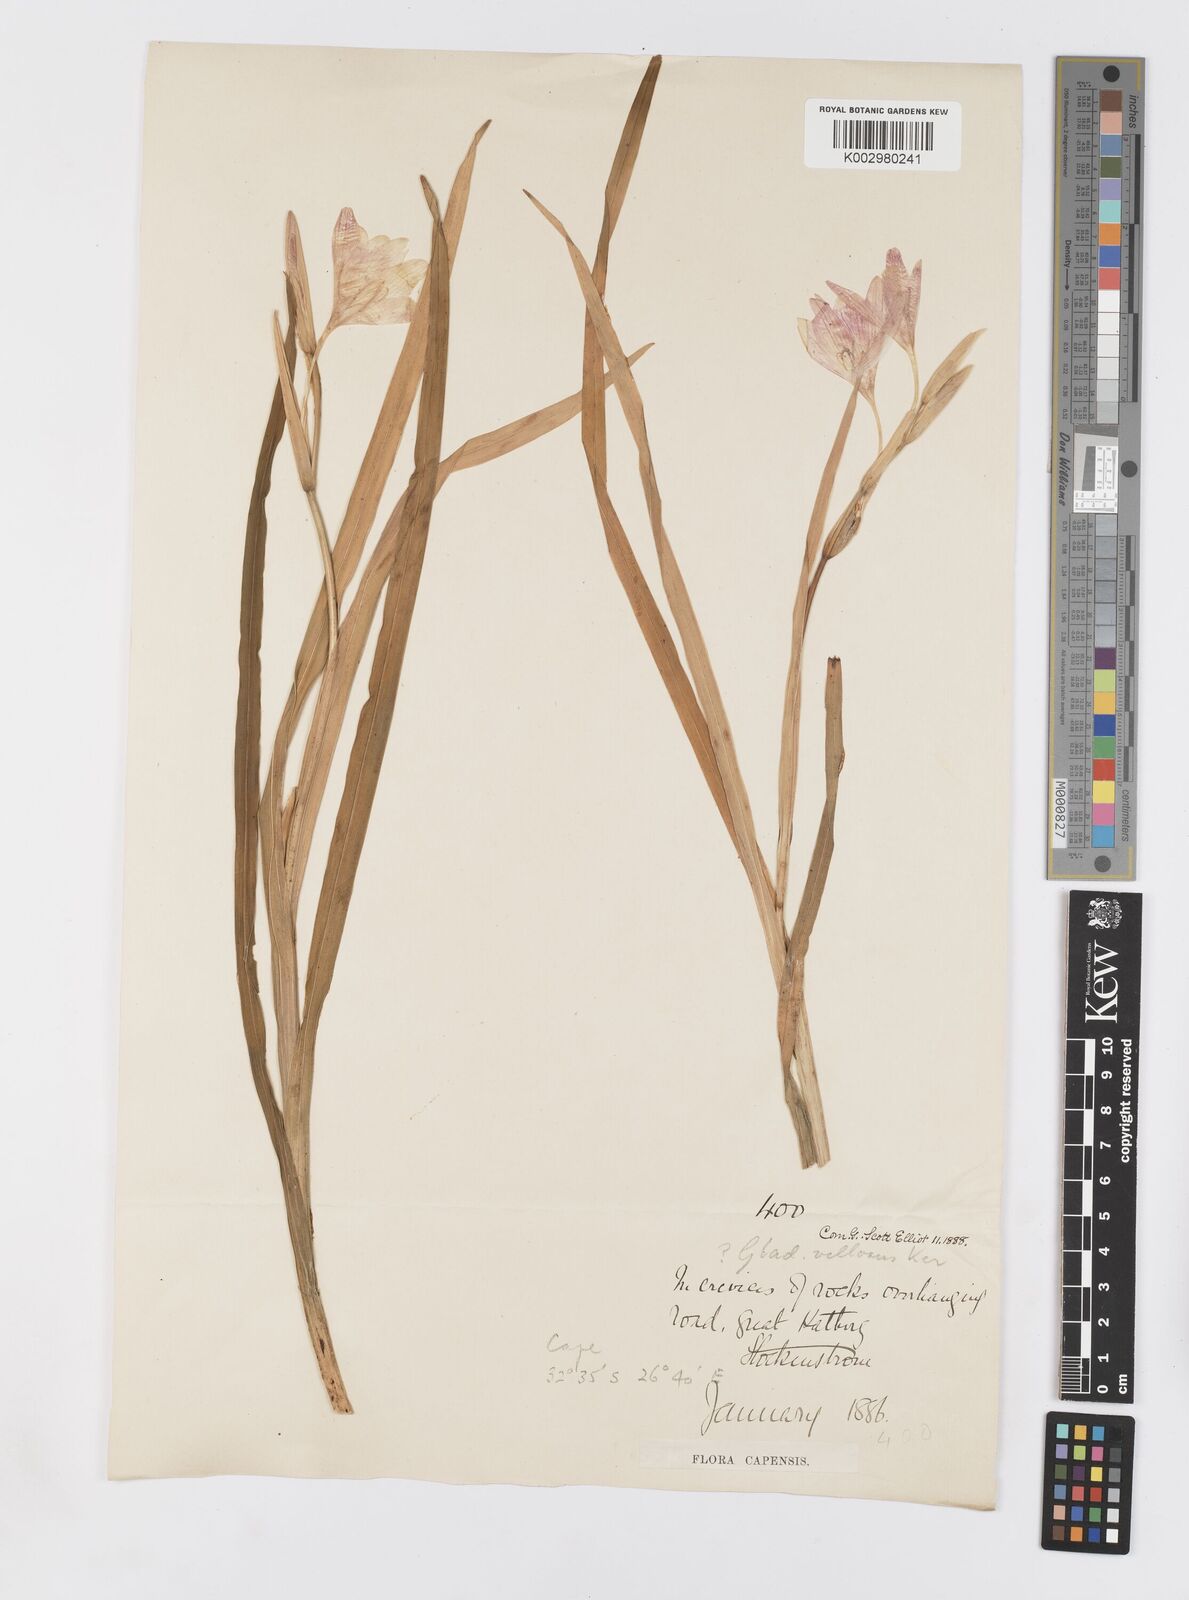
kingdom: Plantae
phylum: Tracheophyta
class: Liliopsida
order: Asparagales
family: Iridaceae
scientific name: Iridaceae
